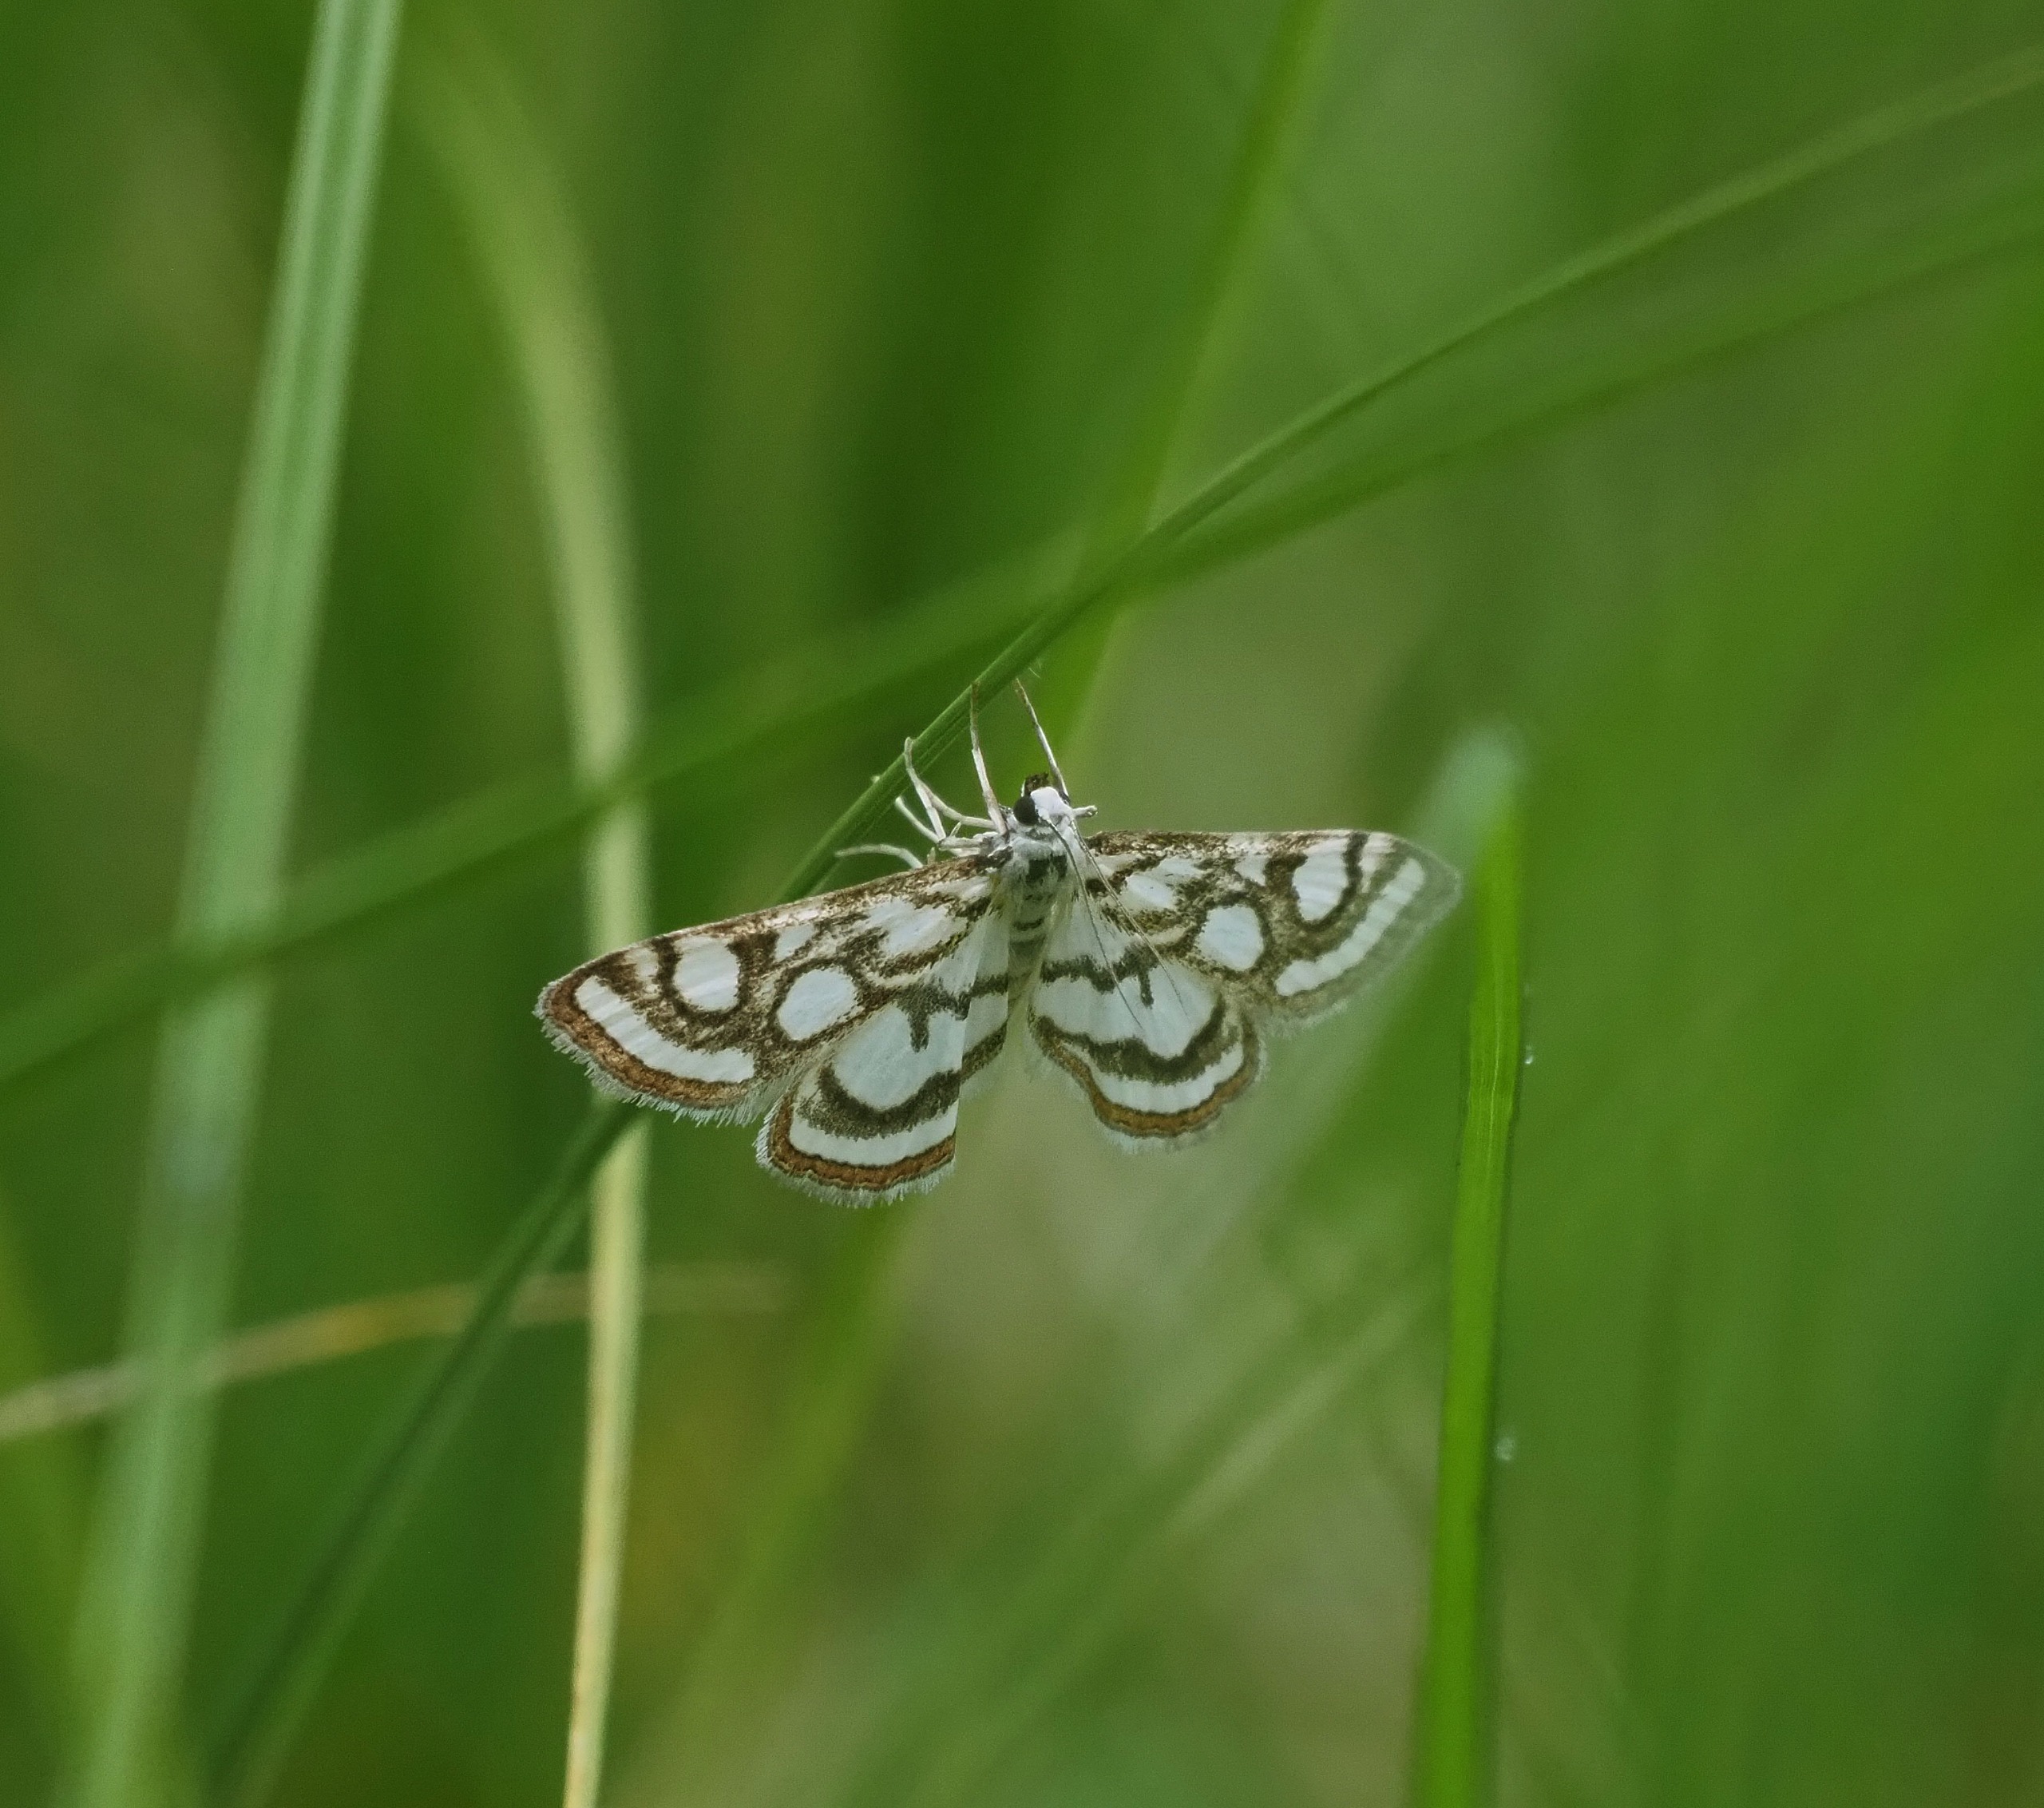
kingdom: Animalia
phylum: Arthropoda
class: Insecta
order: Lepidoptera
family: Crambidae
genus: Nymphula
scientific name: Nymphula nitidulata
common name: Lille porcelænsmøl
